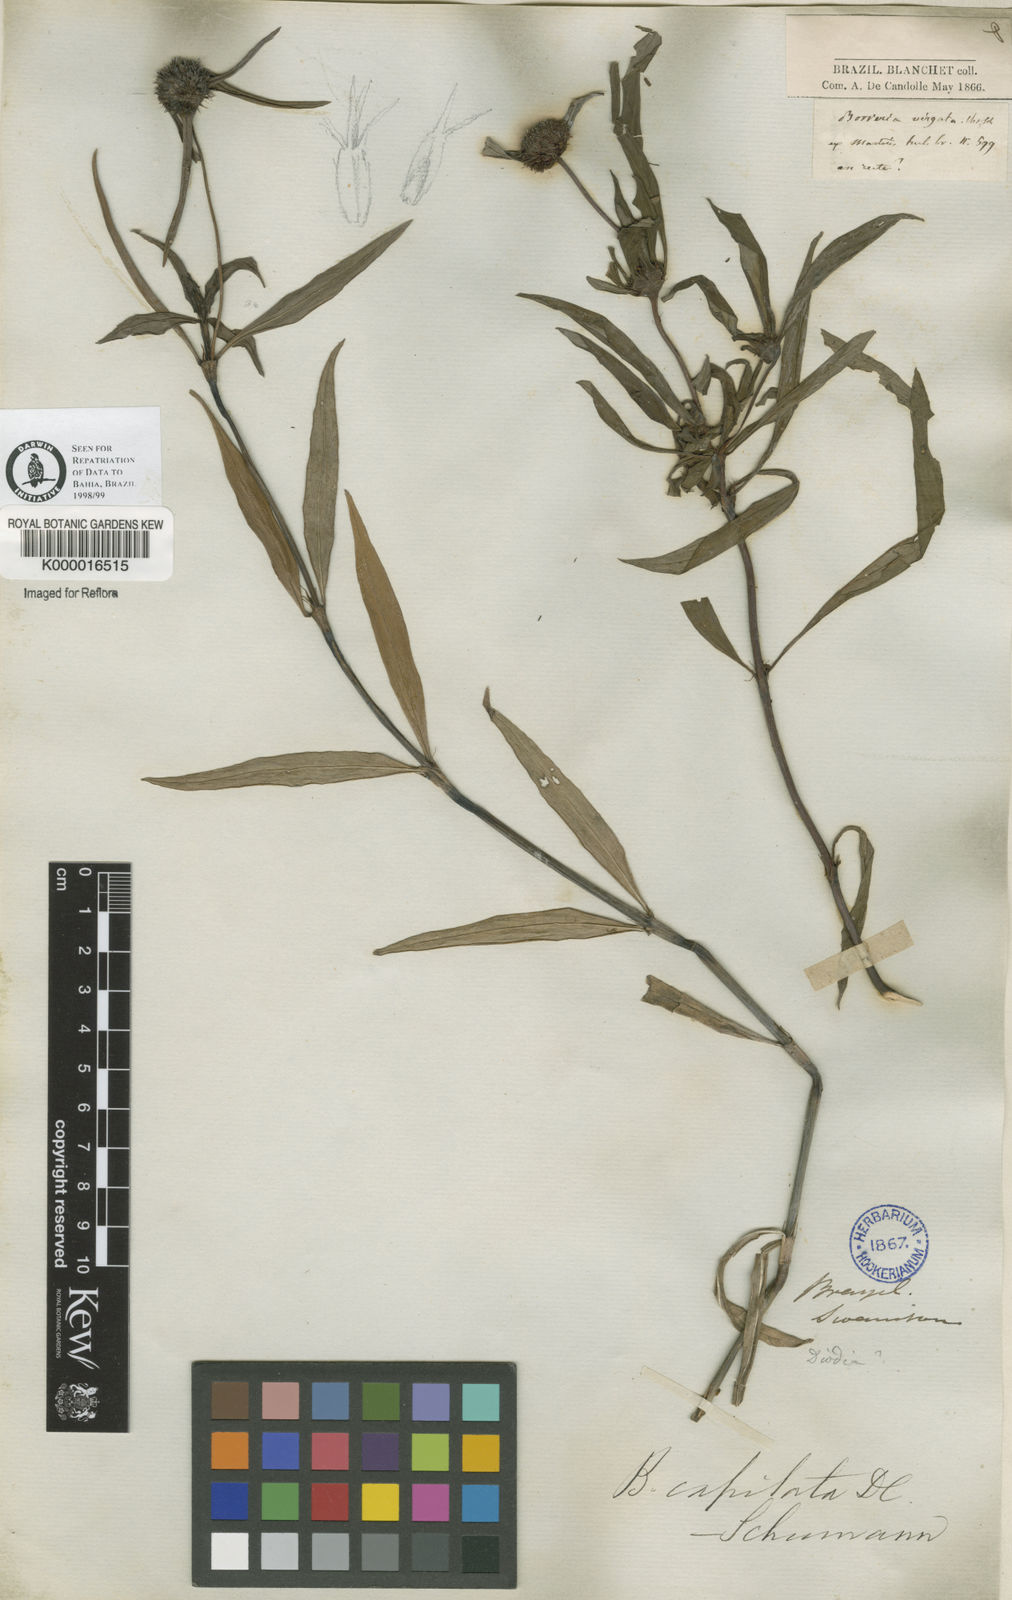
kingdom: Plantae
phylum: Tracheophyta
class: Magnoliopsida
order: Gentianales
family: Rubiaceae
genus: Spermacoce
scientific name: Spermacoce capitata
